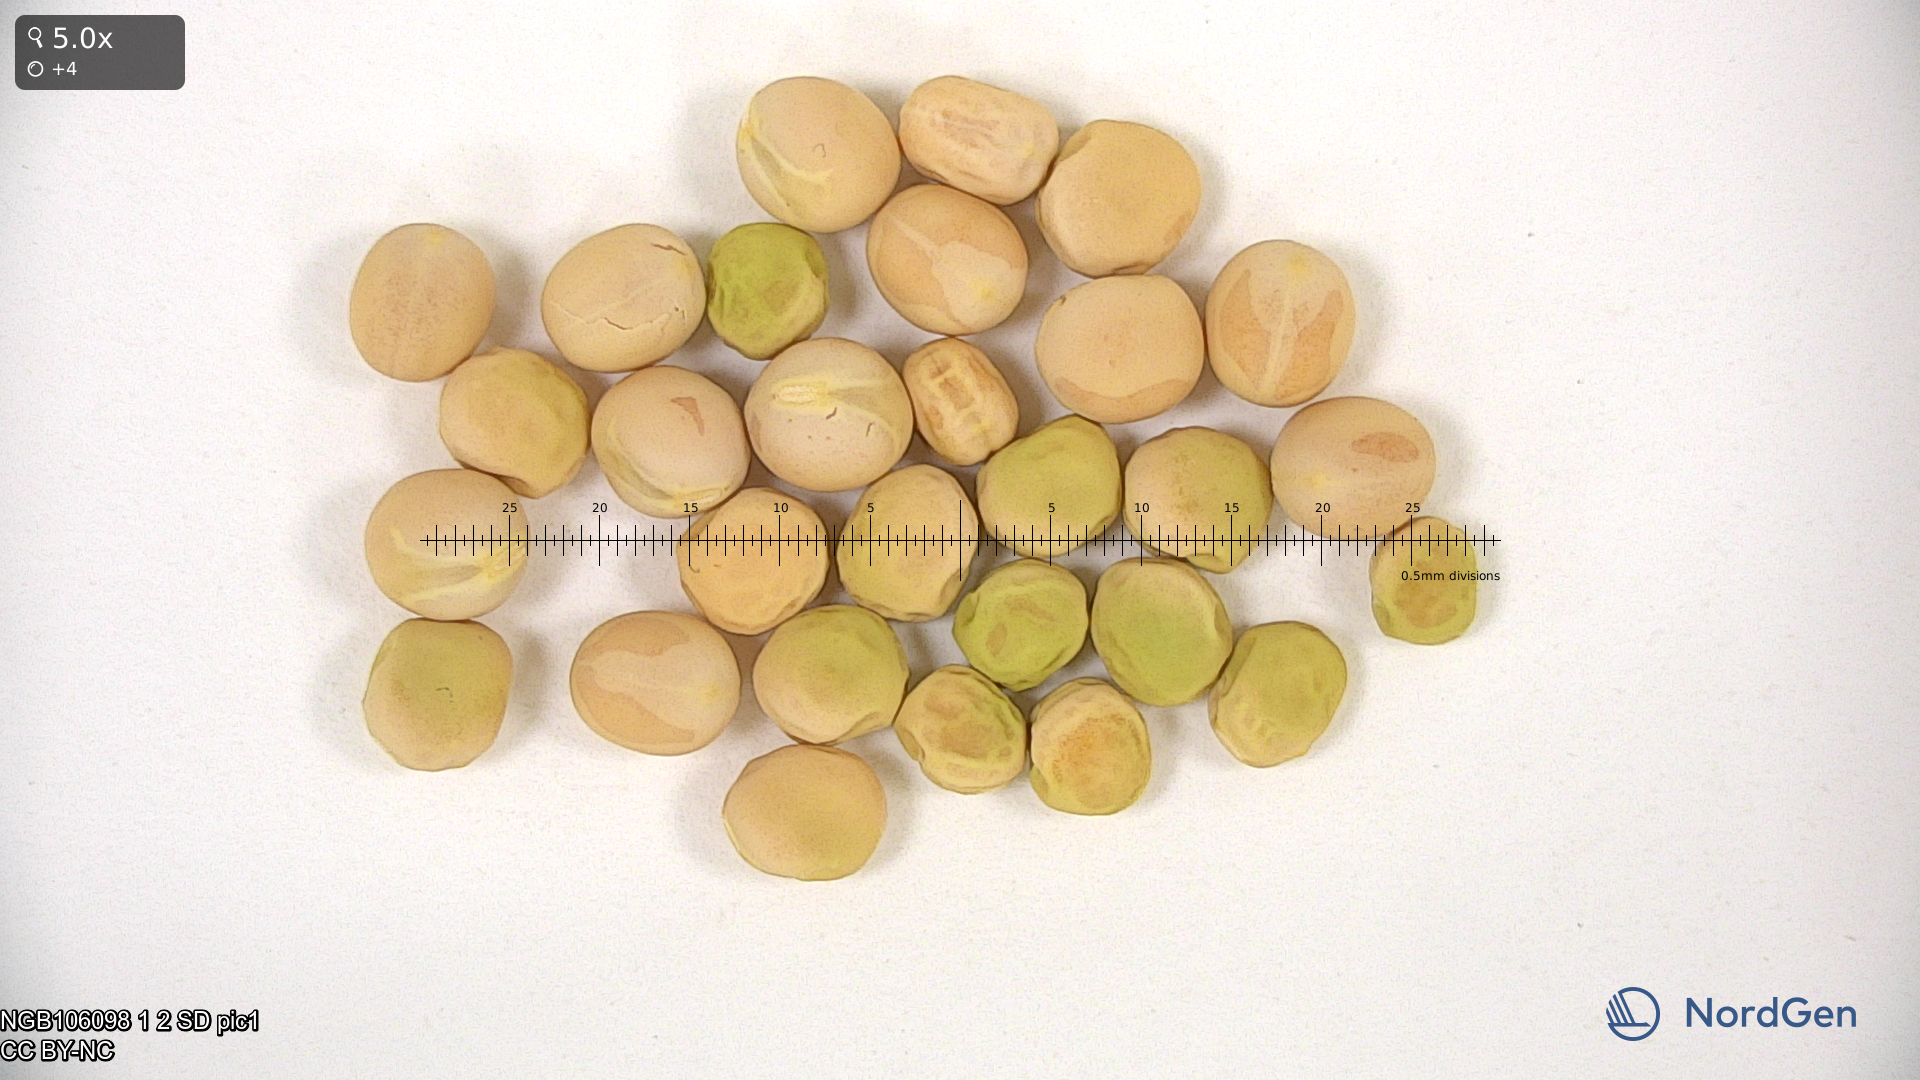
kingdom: Plantae
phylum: Tracheophyta
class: Magnoliopsida
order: Fabales
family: Fabaceae
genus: Lathyrus
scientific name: Lathyrus oleraceus
